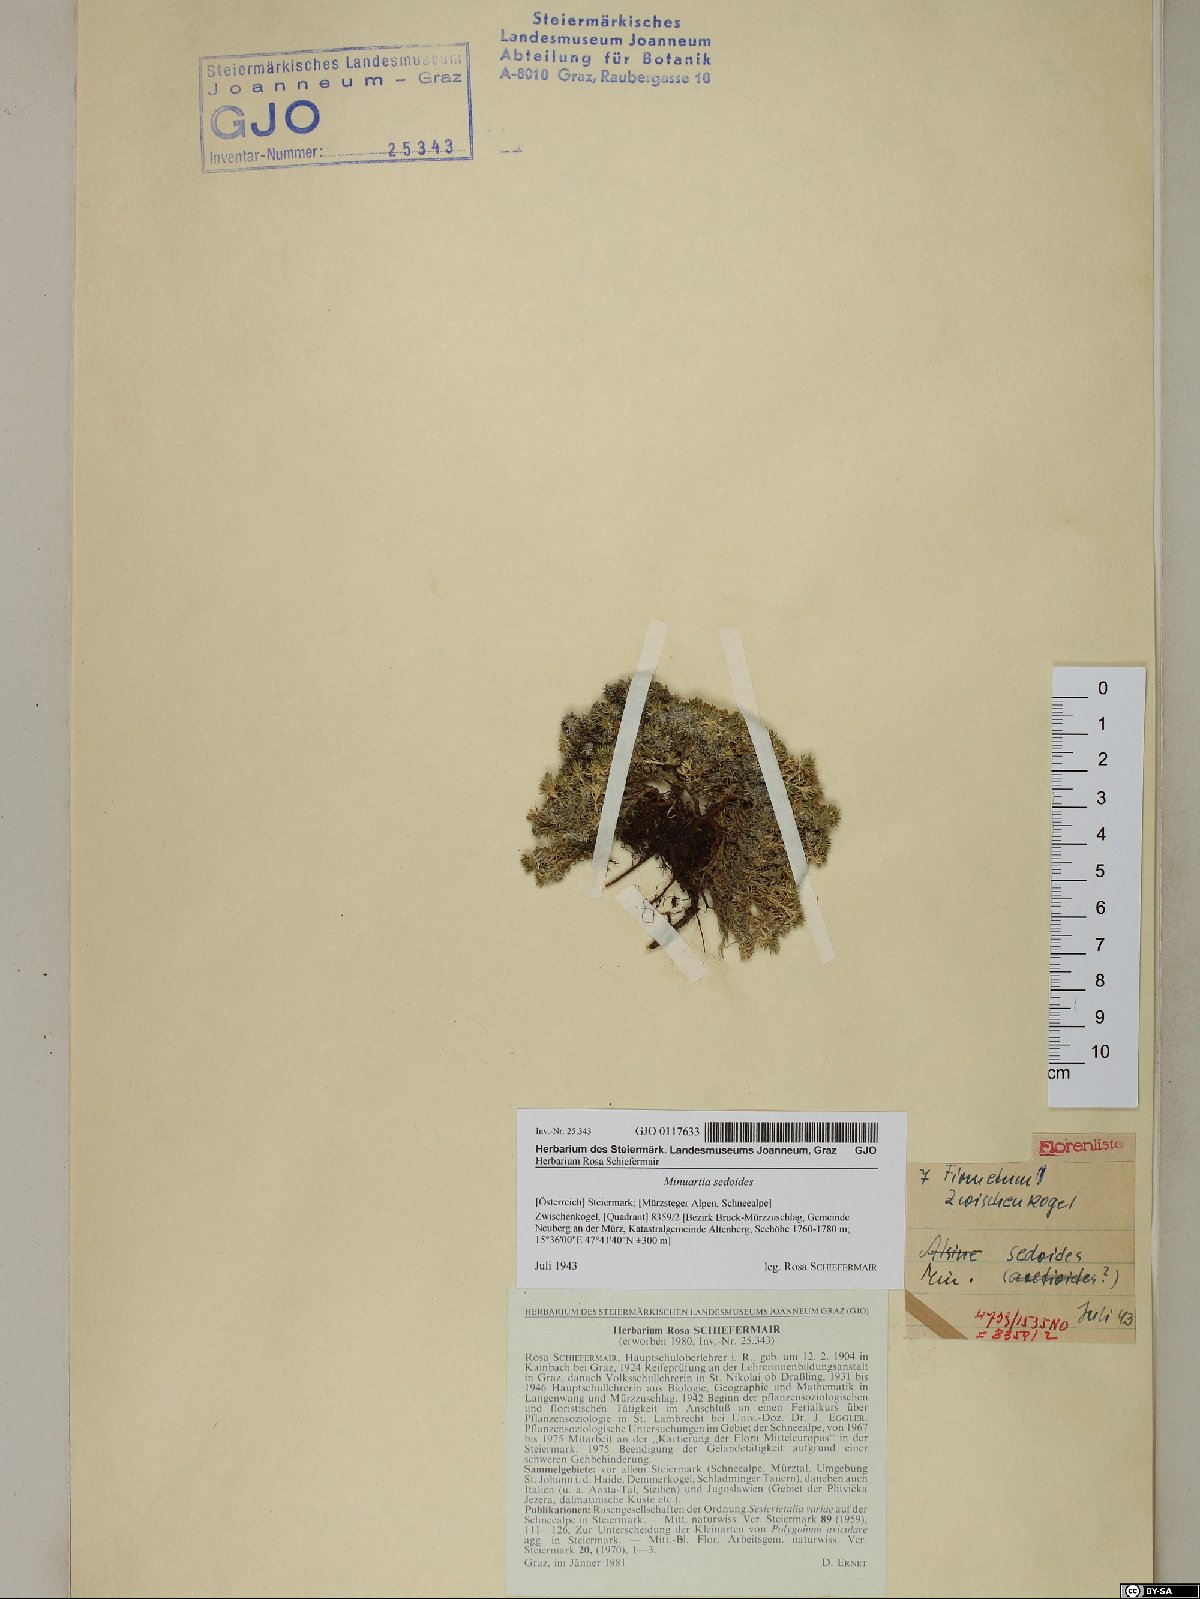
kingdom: Plantae
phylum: Tracheophyta
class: Magnoliopsida
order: Caryophyllales
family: Caryophyllaceae
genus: Cherleria
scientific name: Cherleria sedoides
